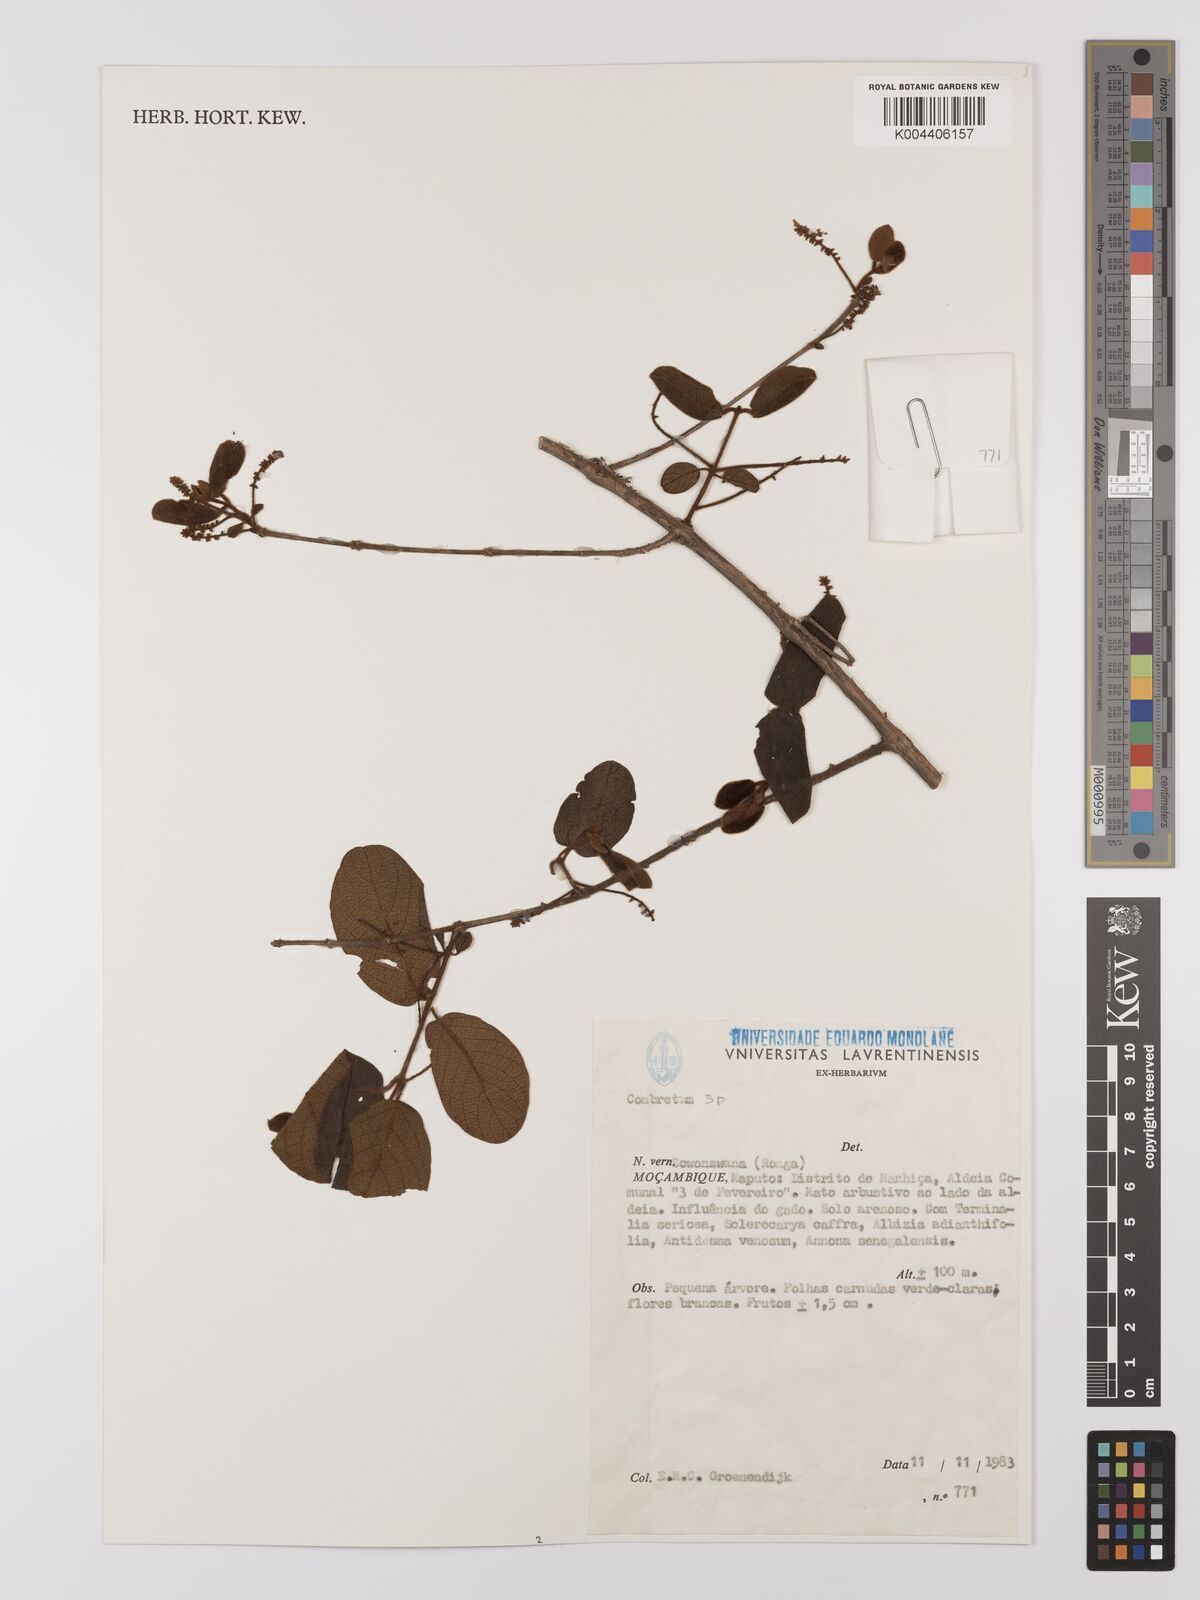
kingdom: Plantae
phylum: Tracheophyta
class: Magnoliopsida
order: Myrtales
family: Combretaceae
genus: Combretum
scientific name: Combretum
